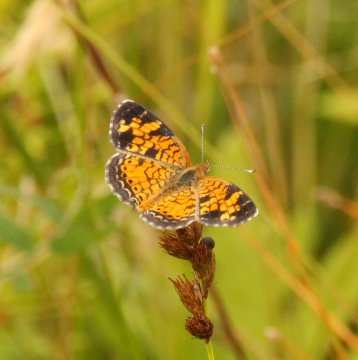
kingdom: Animalia
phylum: Arthropoda
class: Insecta
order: Lepidoptera
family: Nymphalidae
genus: Phyciodes
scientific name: Phyciodes tharos
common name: Northern Crescent
